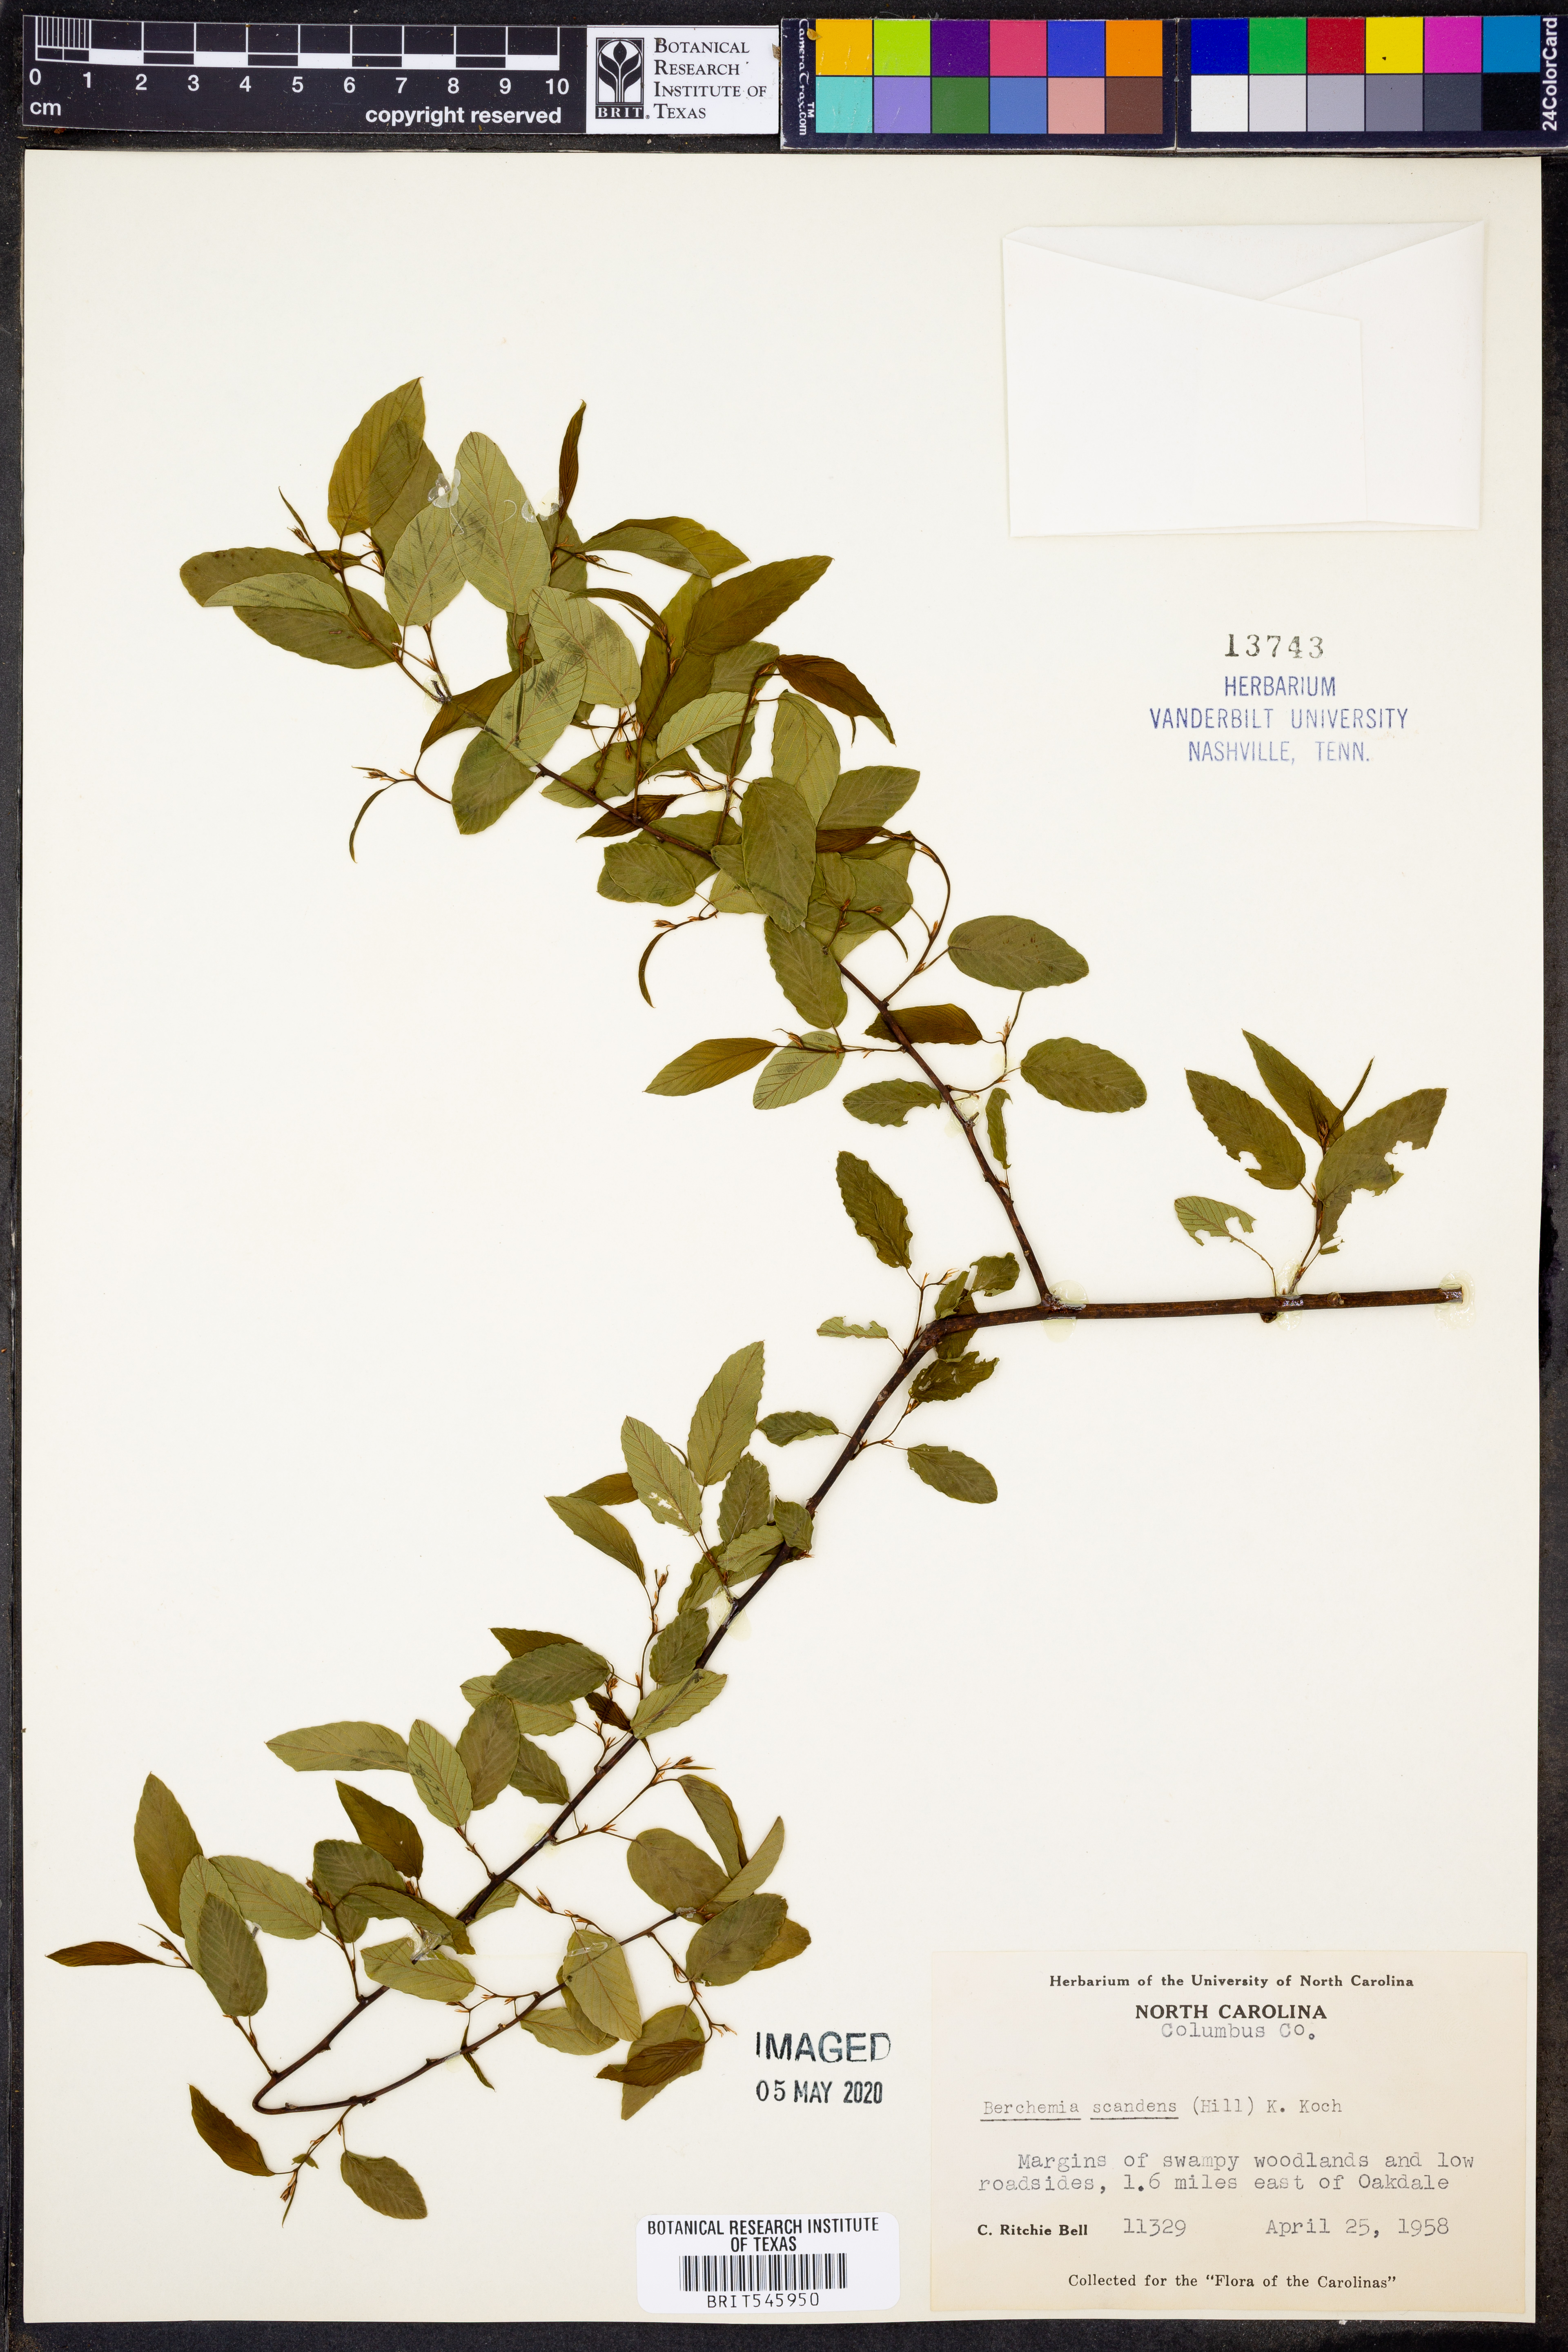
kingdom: Plantae
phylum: Tracheophyta
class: Magnoliopsida
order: Rosales
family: Rhamnaceae
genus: Berchemia
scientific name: Berchemia scandens
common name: Supplejack
